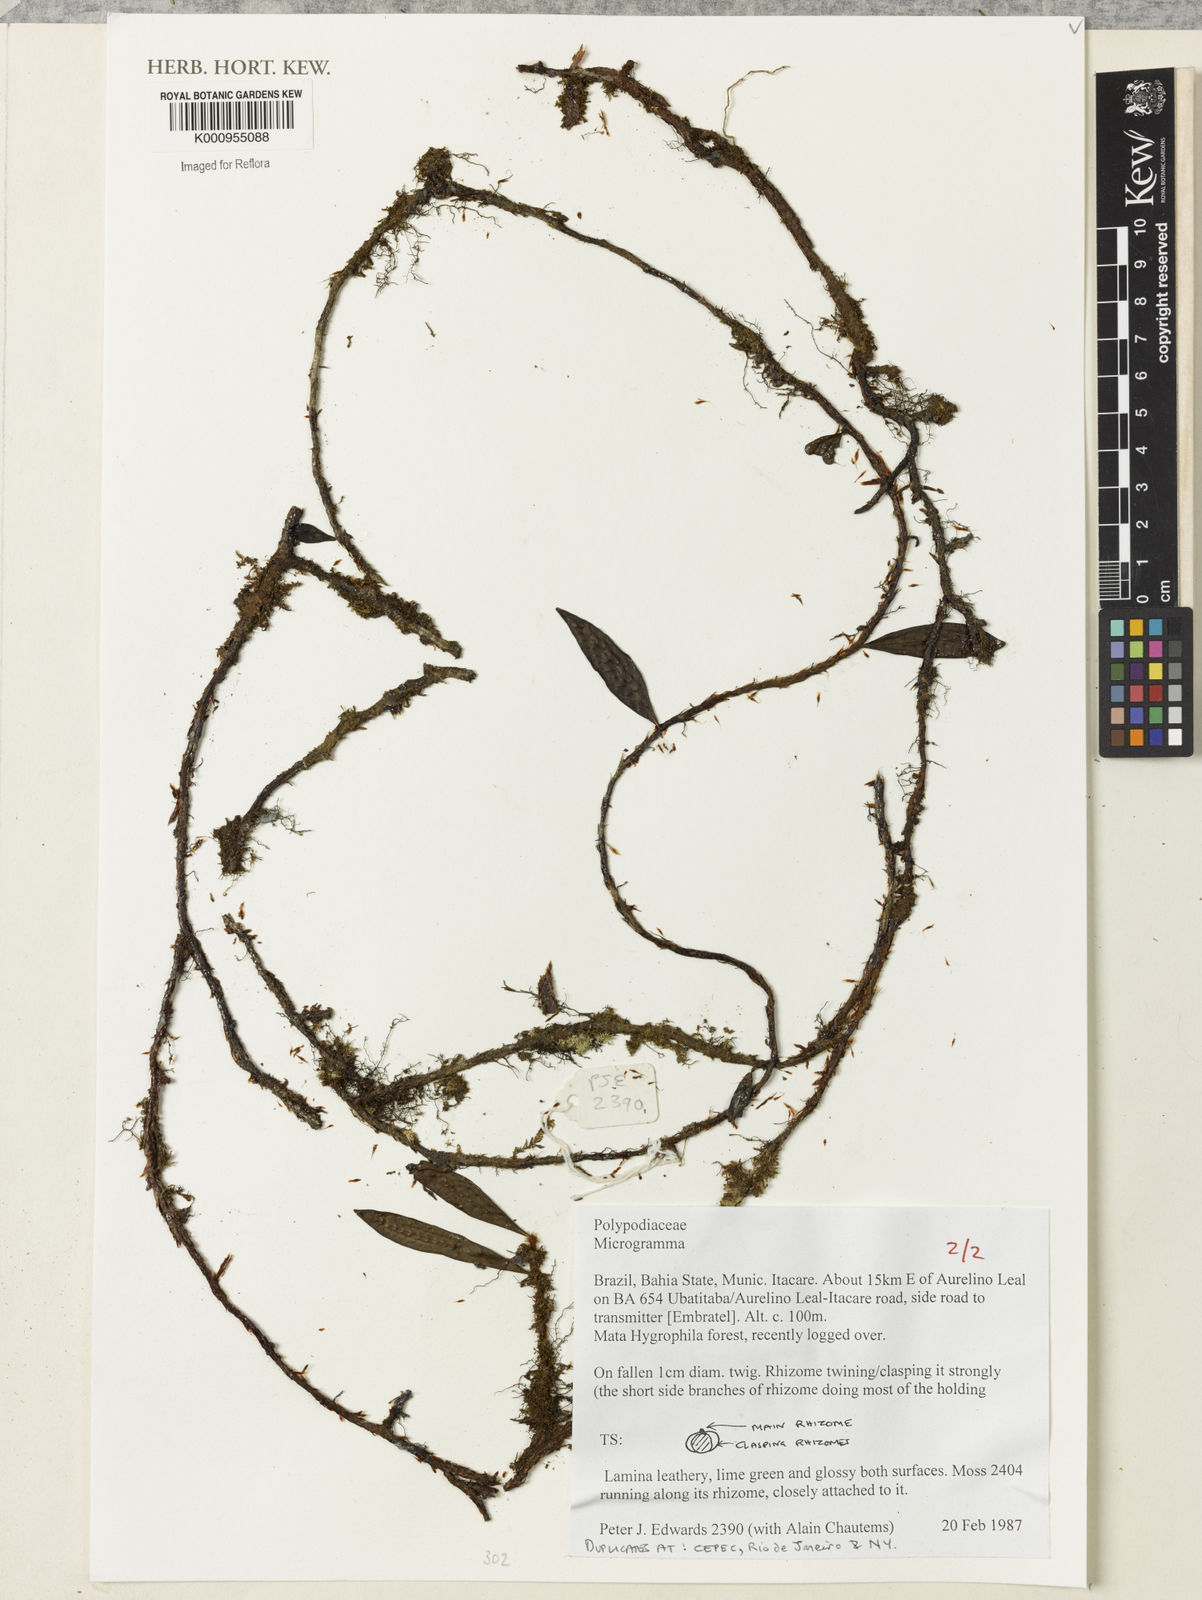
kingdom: Plantae
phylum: Tracheophyta
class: Polypodiopsida
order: Polypodiales
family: Polypodiaceae
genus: Microgramma
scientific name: Microgramma
